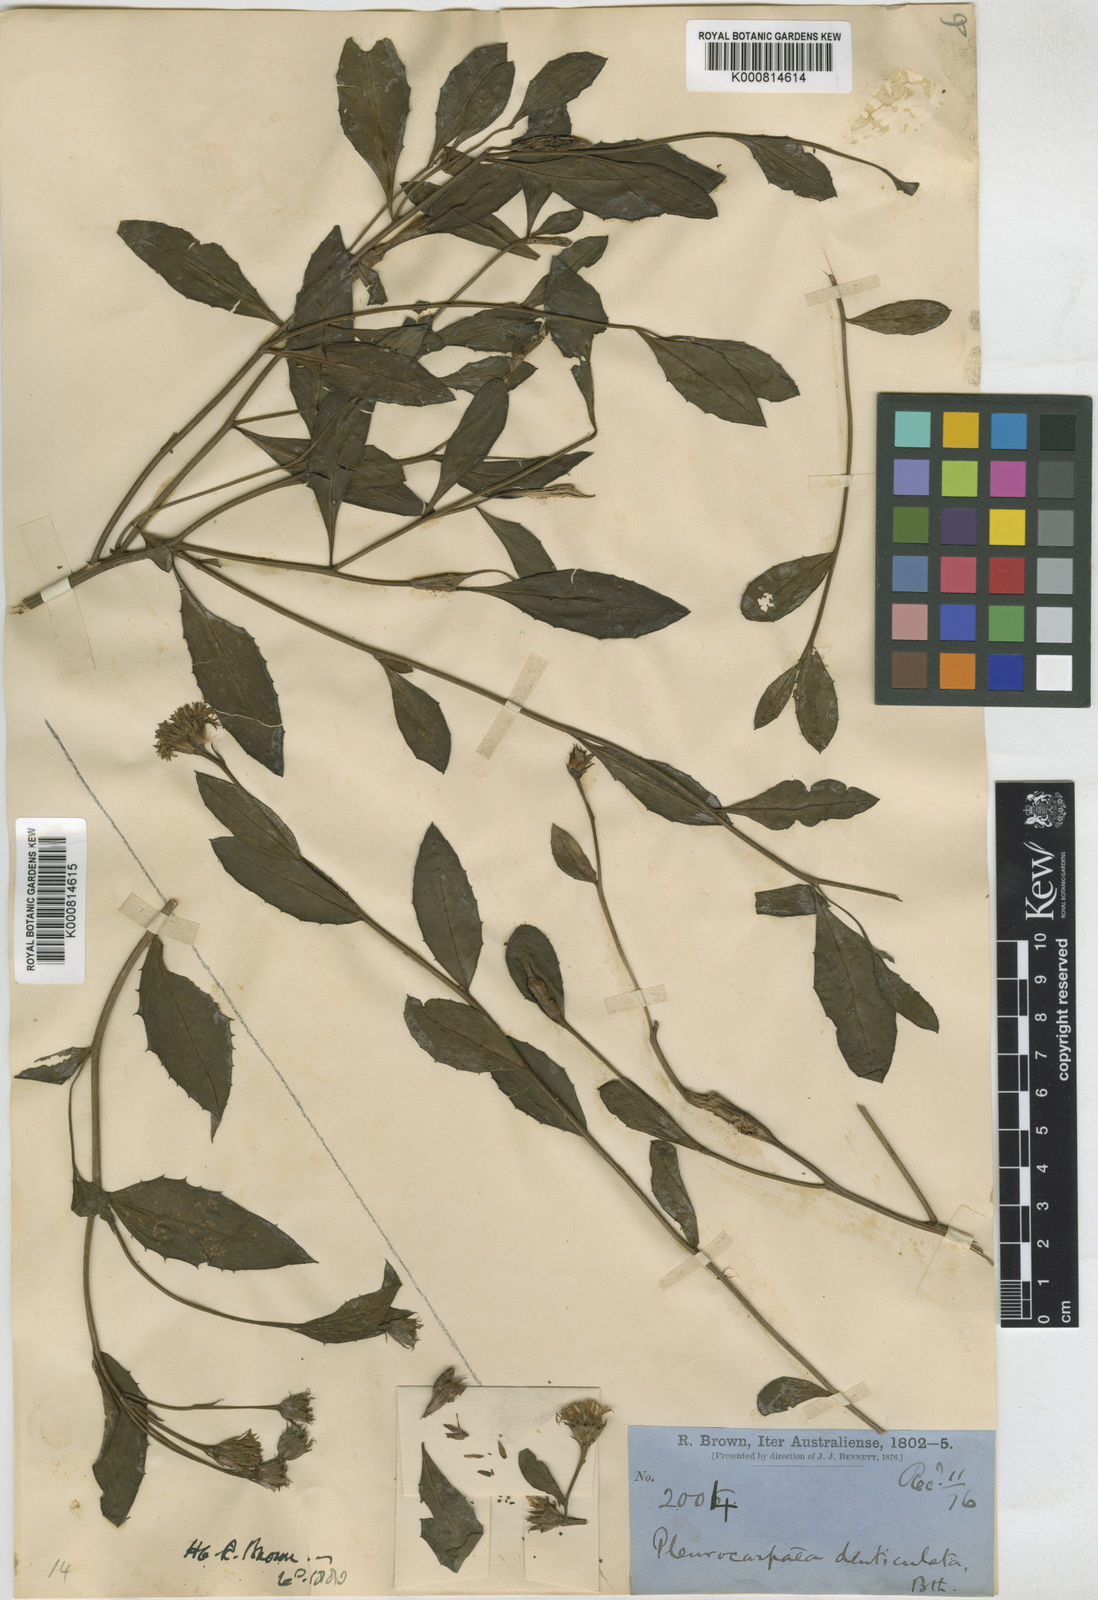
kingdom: Plantae
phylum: Tracheophyta
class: Magnoliopsida
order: Asterales
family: Asteraceae
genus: Pleurocarpaea
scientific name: Pleurocarpaea denticulata
